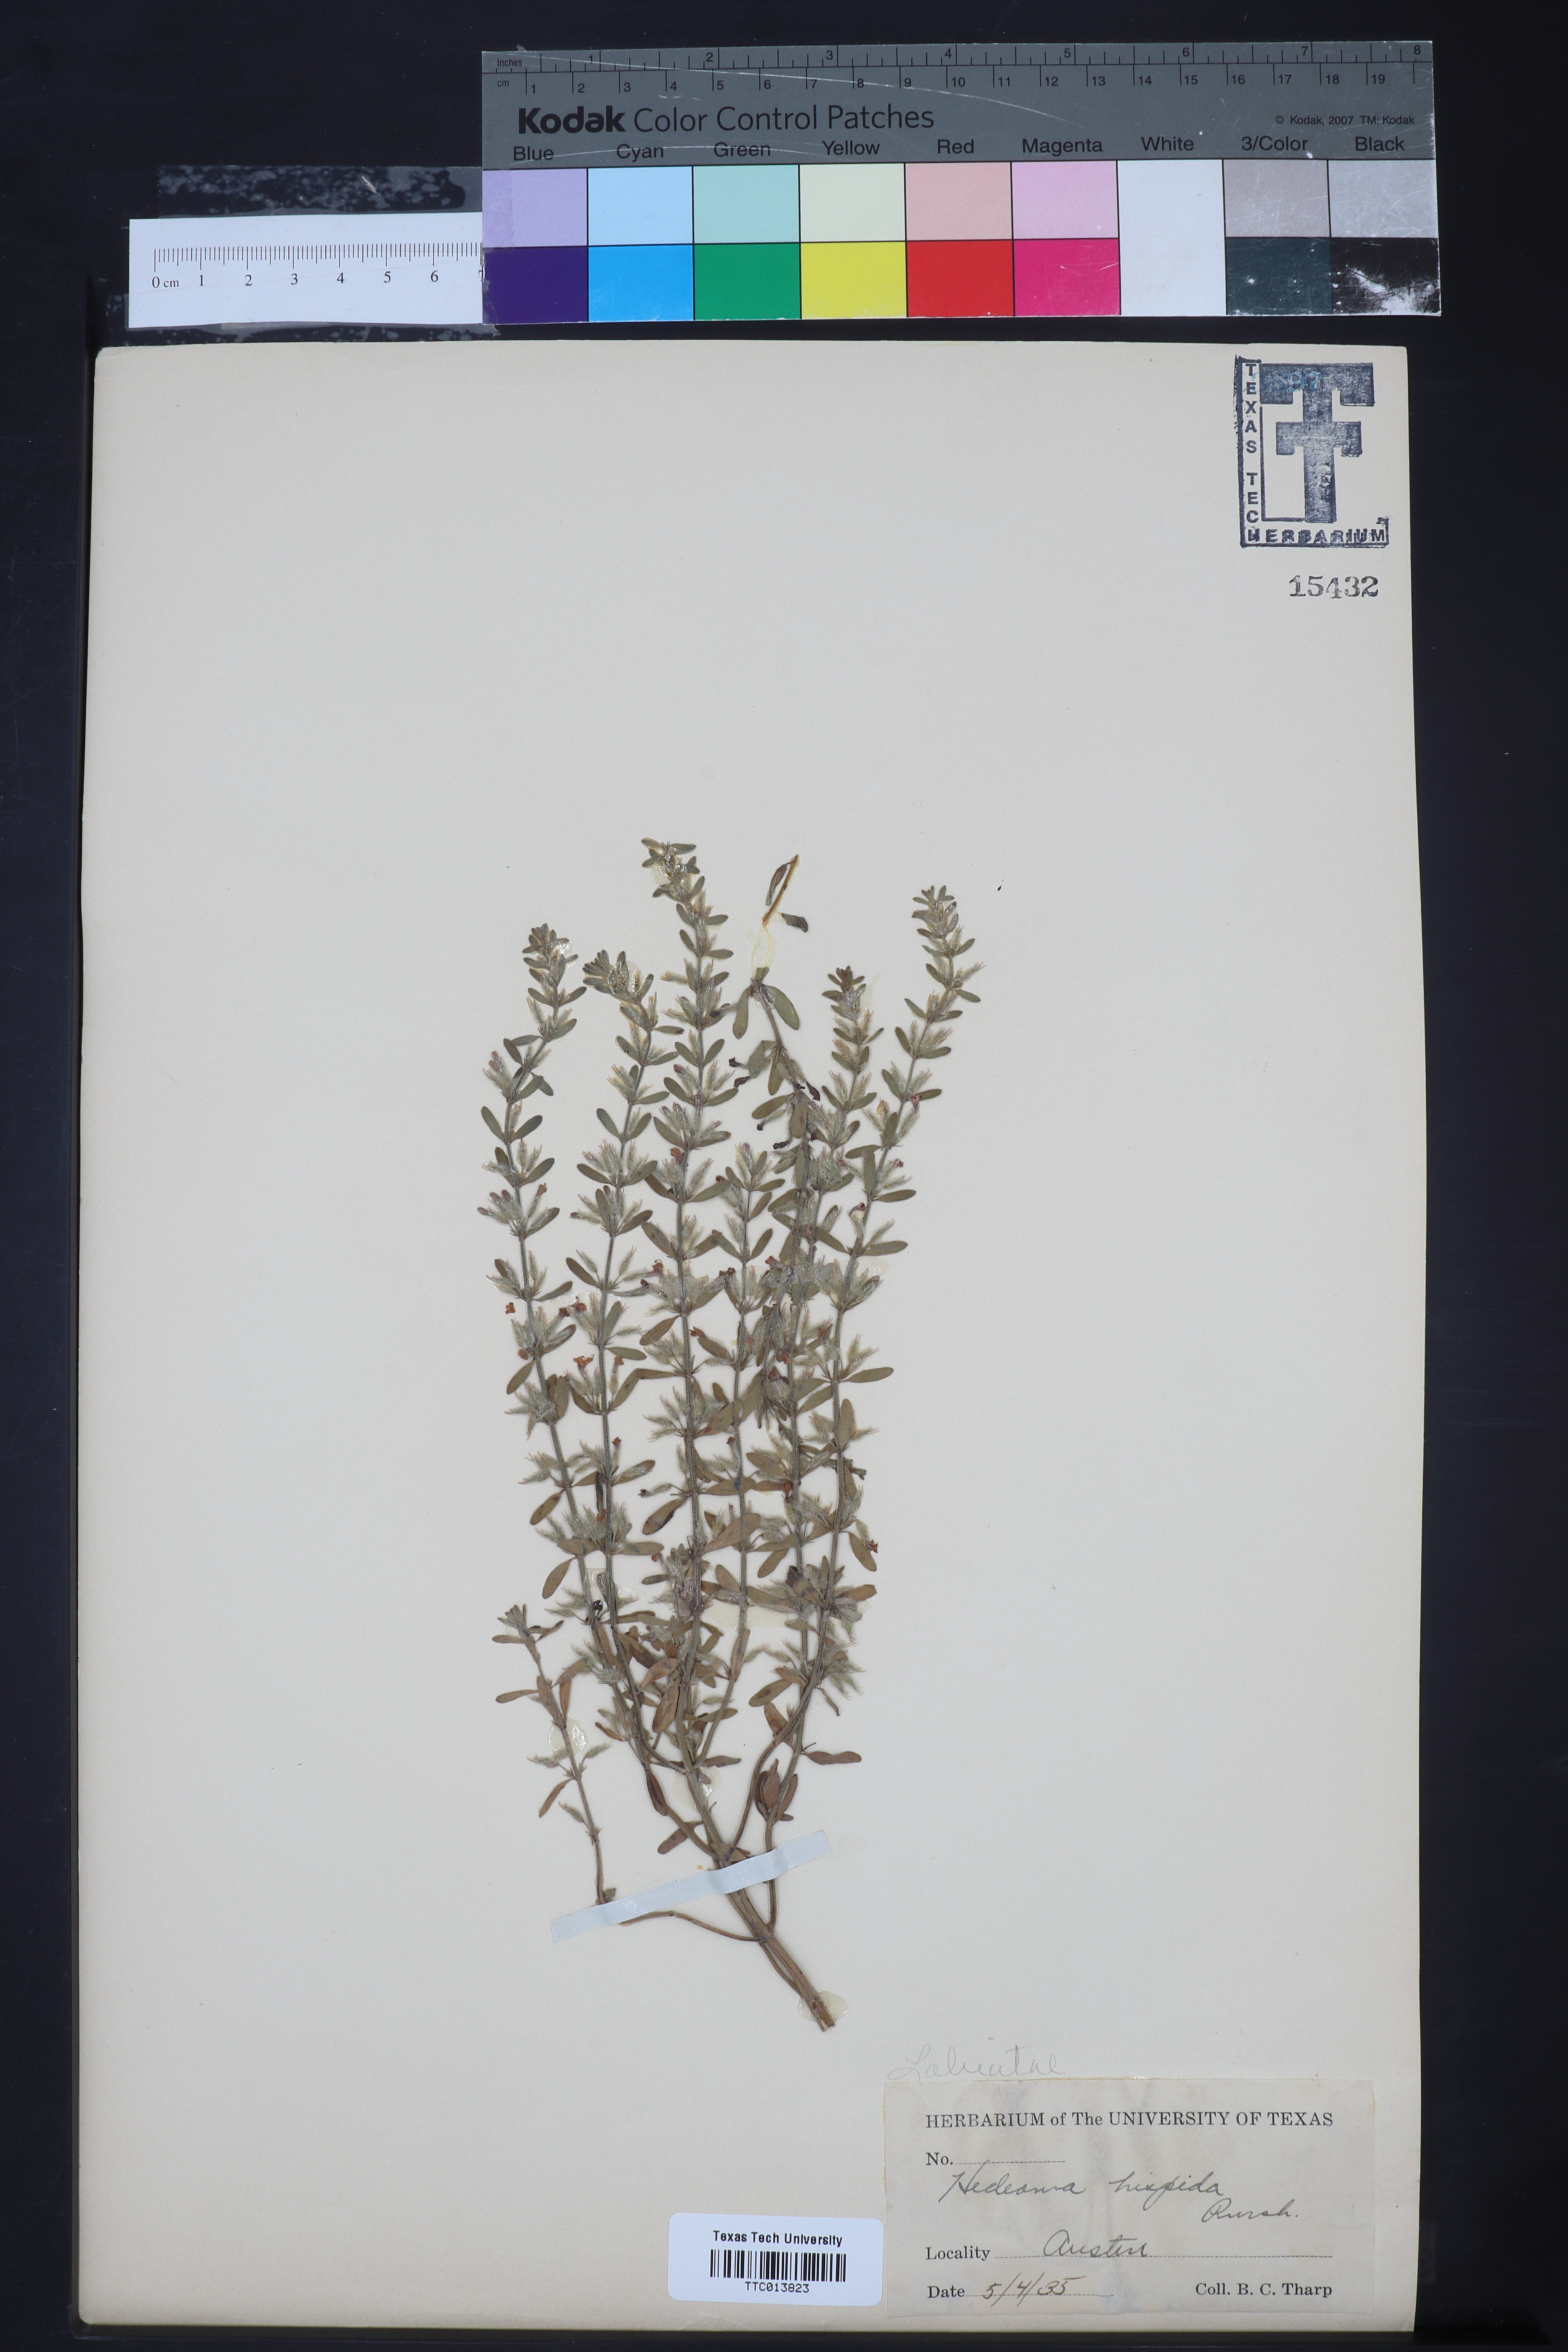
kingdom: Plantae
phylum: Tracheophyta
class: Magnoliopsida
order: Lamiales
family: Lamiaceae
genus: Hedeoma
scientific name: Hedeoma hispida
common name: Mock pennyroyal
